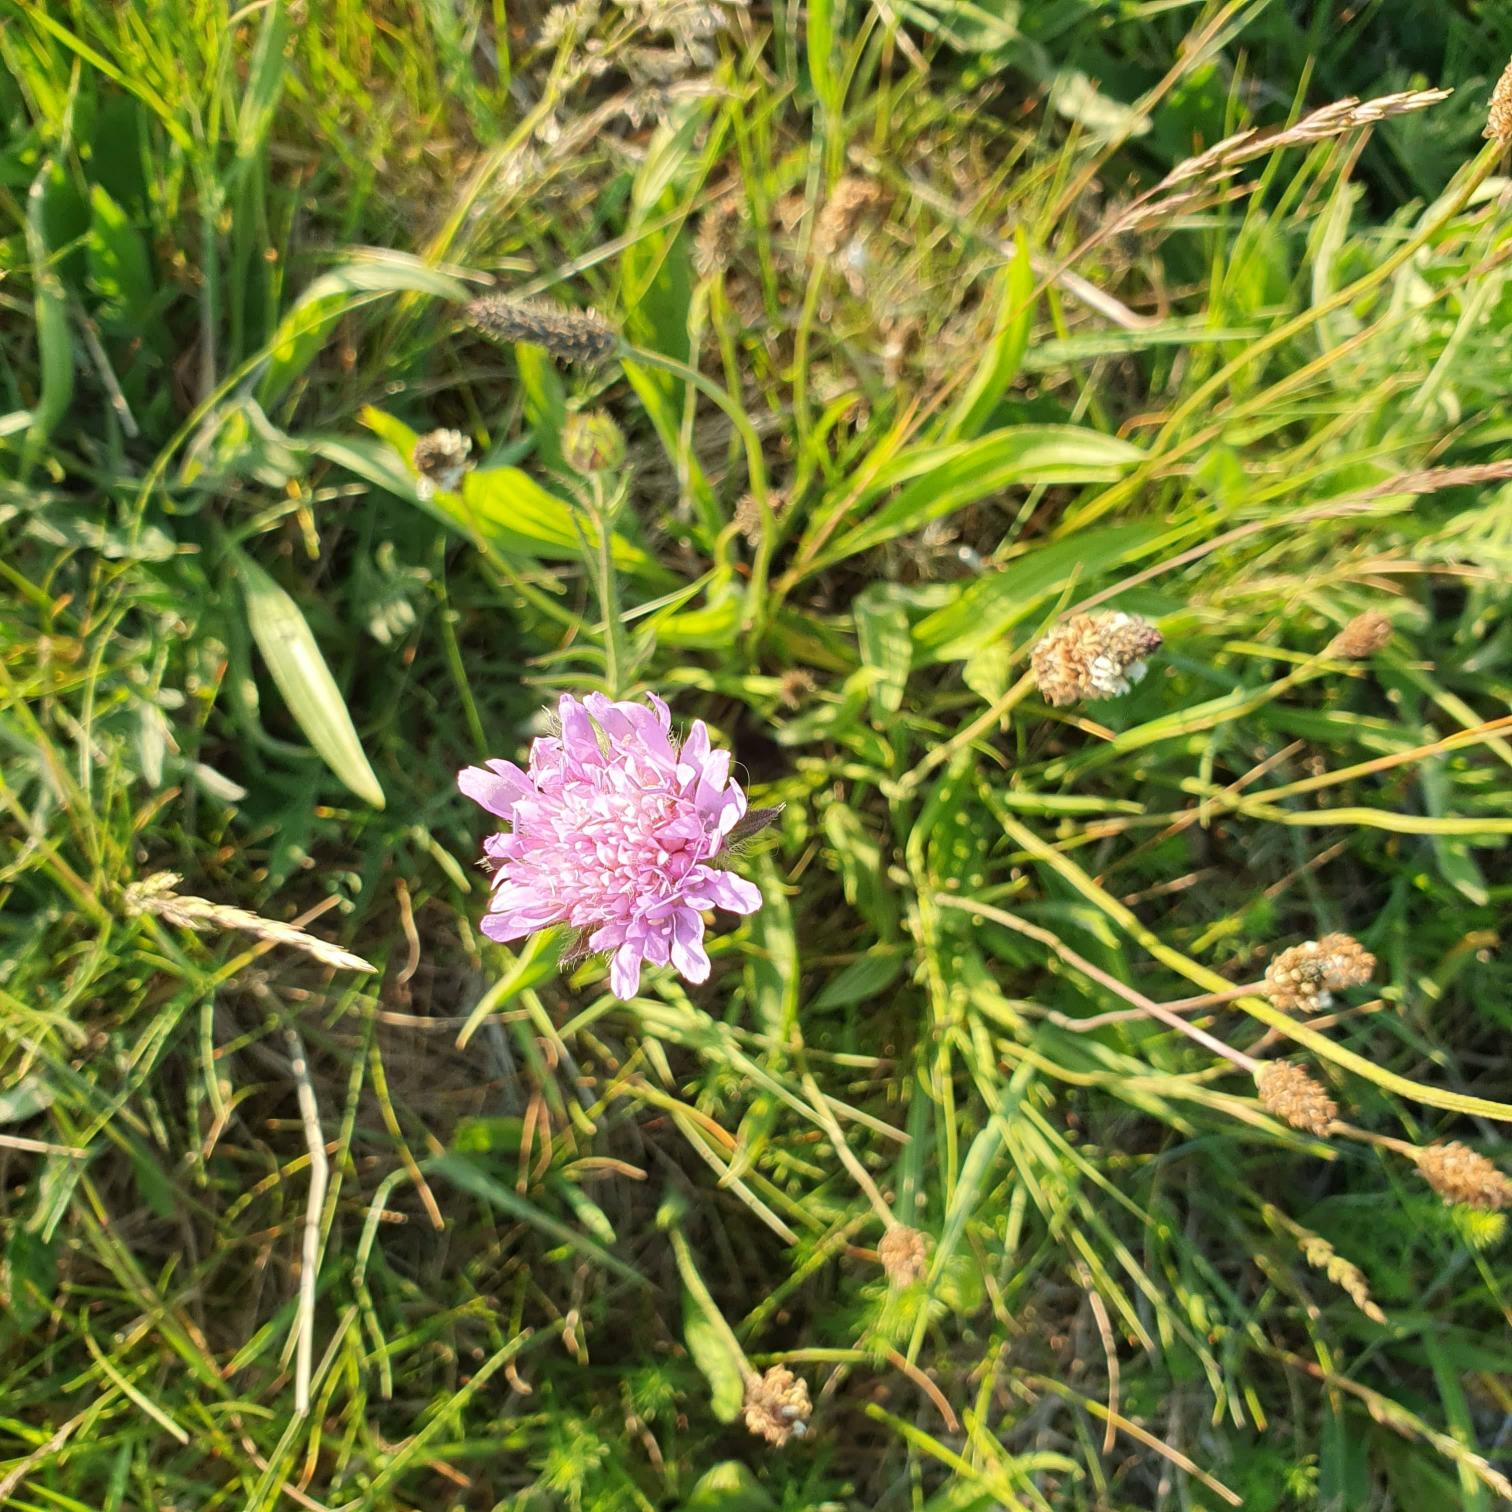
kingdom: Plantae
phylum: Tracheophyta
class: Magnoliopsida
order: Dipsacales
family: Caprifoliaceae
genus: Knautia
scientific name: Knautia arvensis
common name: Blåhat
